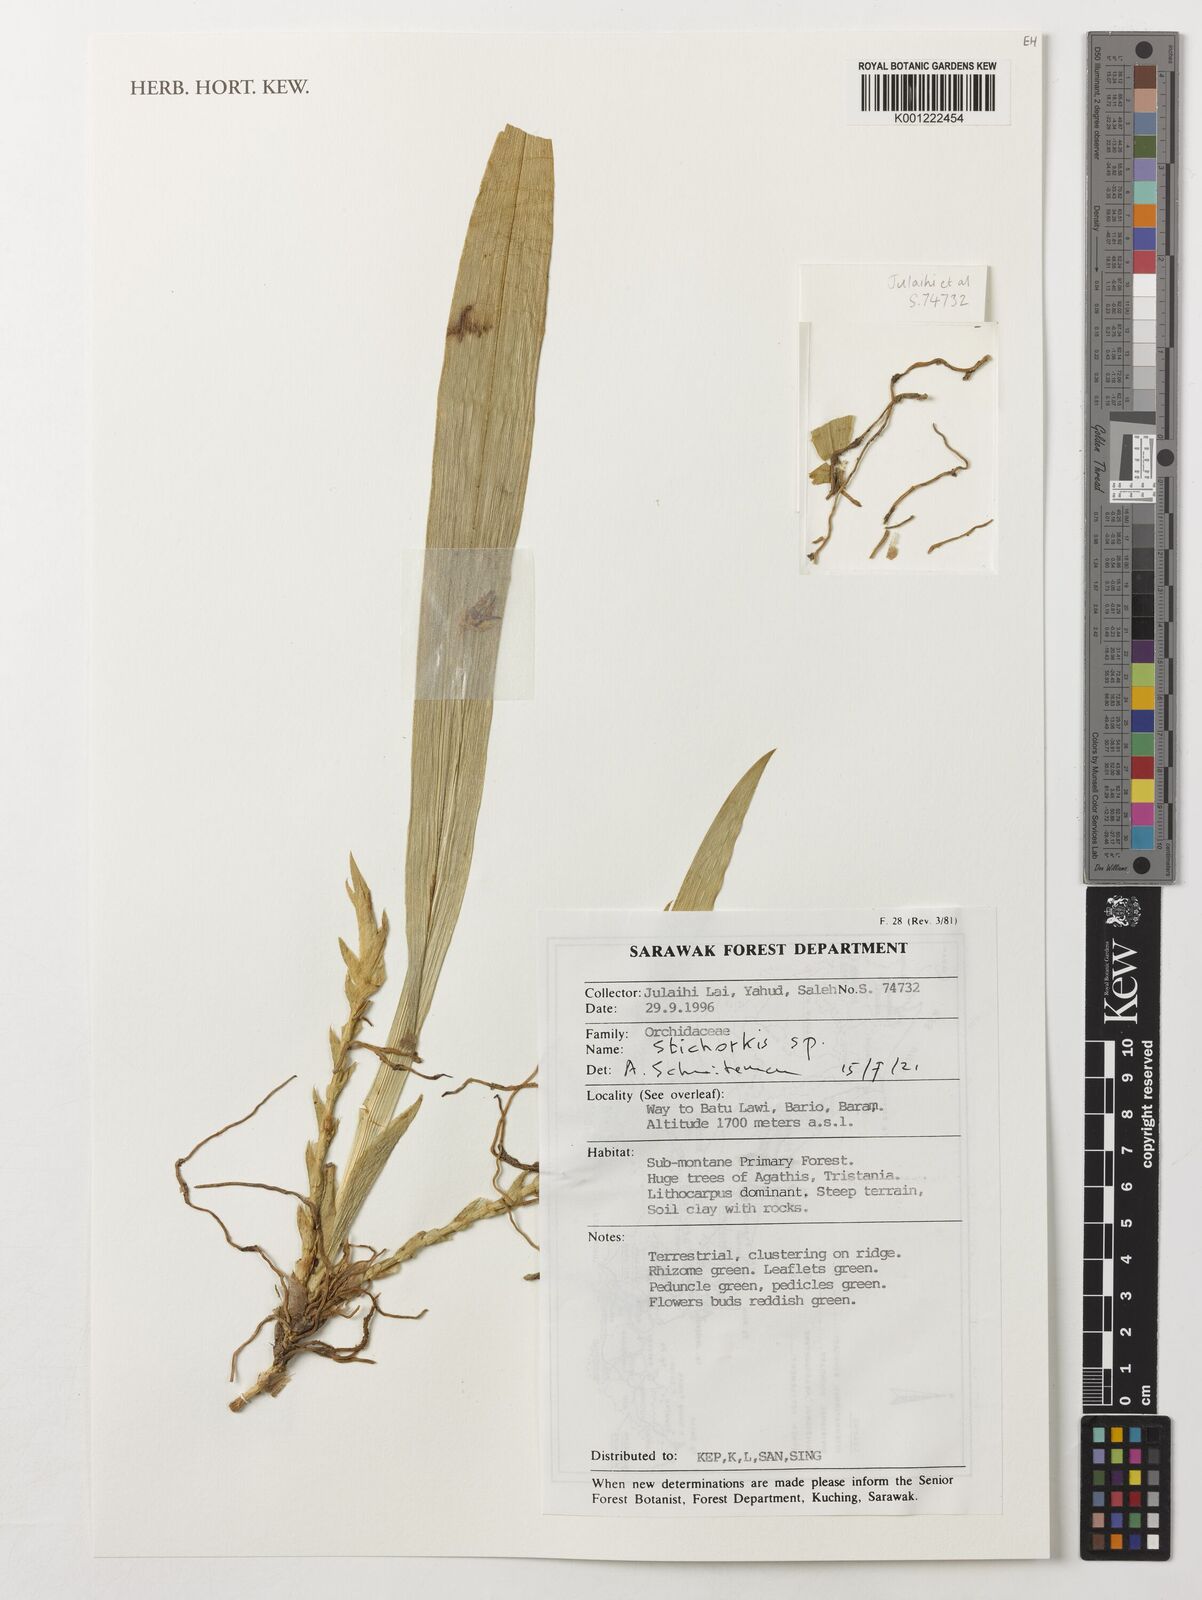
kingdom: Plantae
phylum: Tracheophyta
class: Liliopsida
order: Asparagales
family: Orchidaceae
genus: Stichorkis
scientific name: Stichorkis
